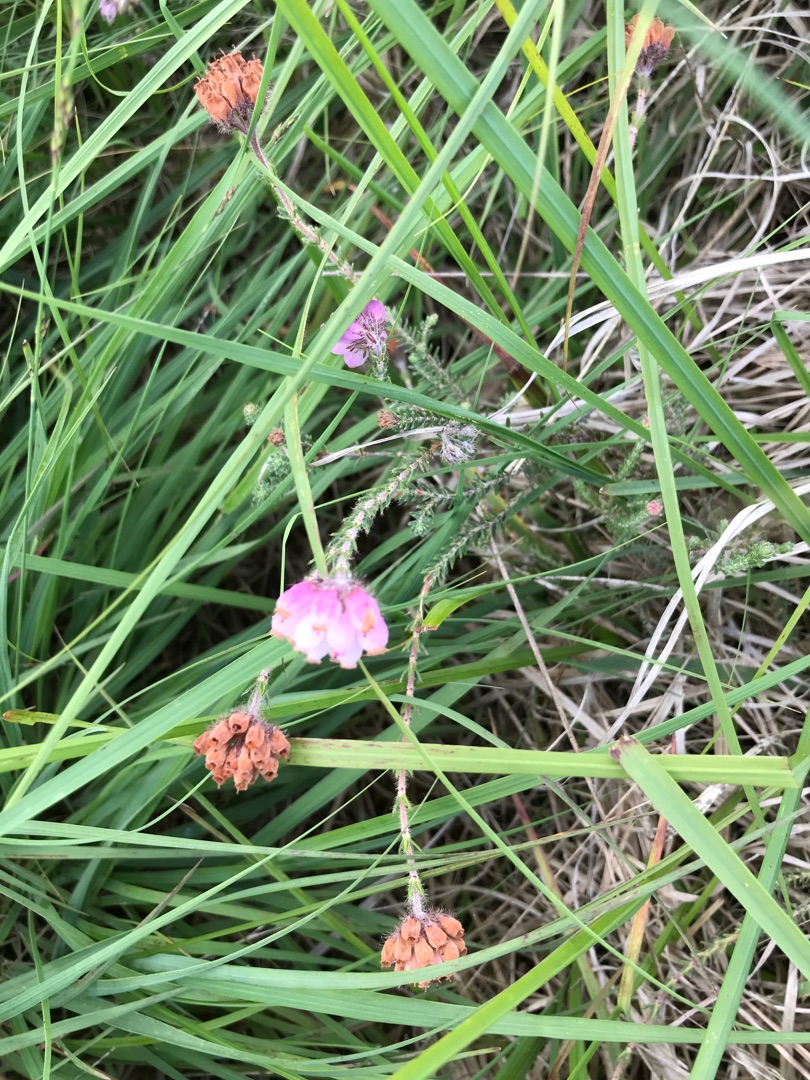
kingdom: Plantae
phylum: Tracheophyta
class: Magnoliopsida
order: Ericales
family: Ericaceae
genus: Erica
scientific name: Erica tetralix
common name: Klokkelyng
